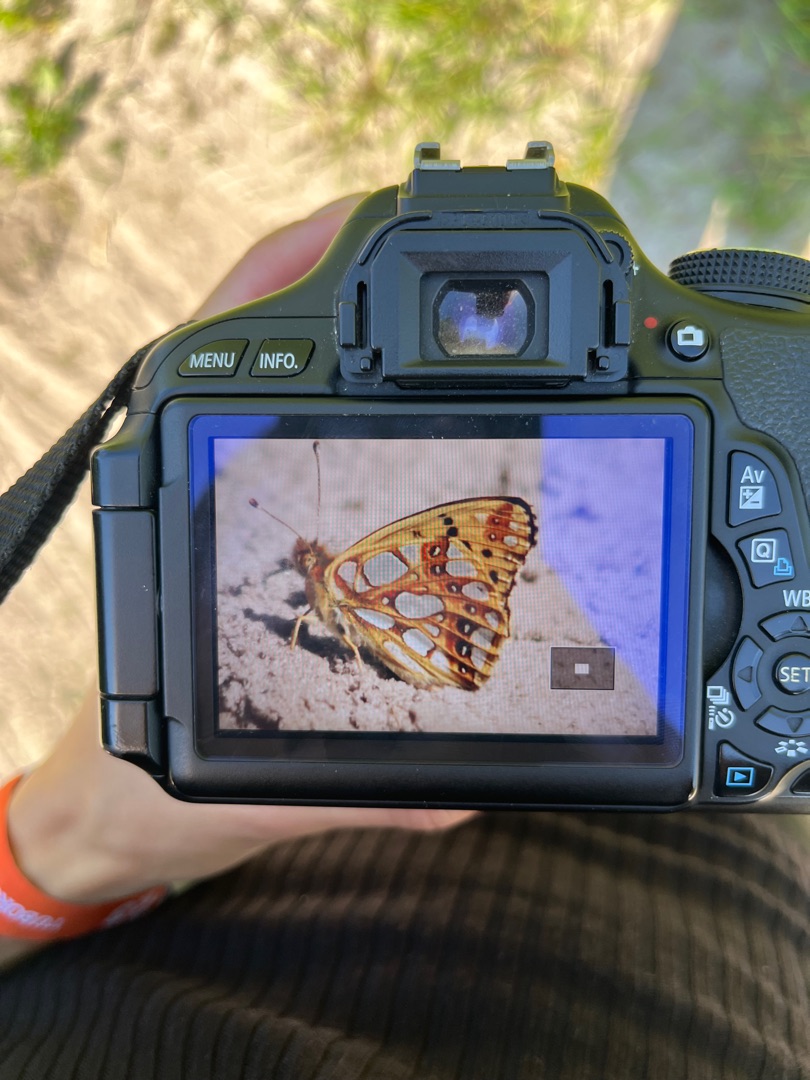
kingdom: Animalia
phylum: Arthropoda
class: Insecta
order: Lepidoptera
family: Nymphalidae
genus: Issoria
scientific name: Issoria lathonia
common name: Storplettet perlemorsommerfugl
